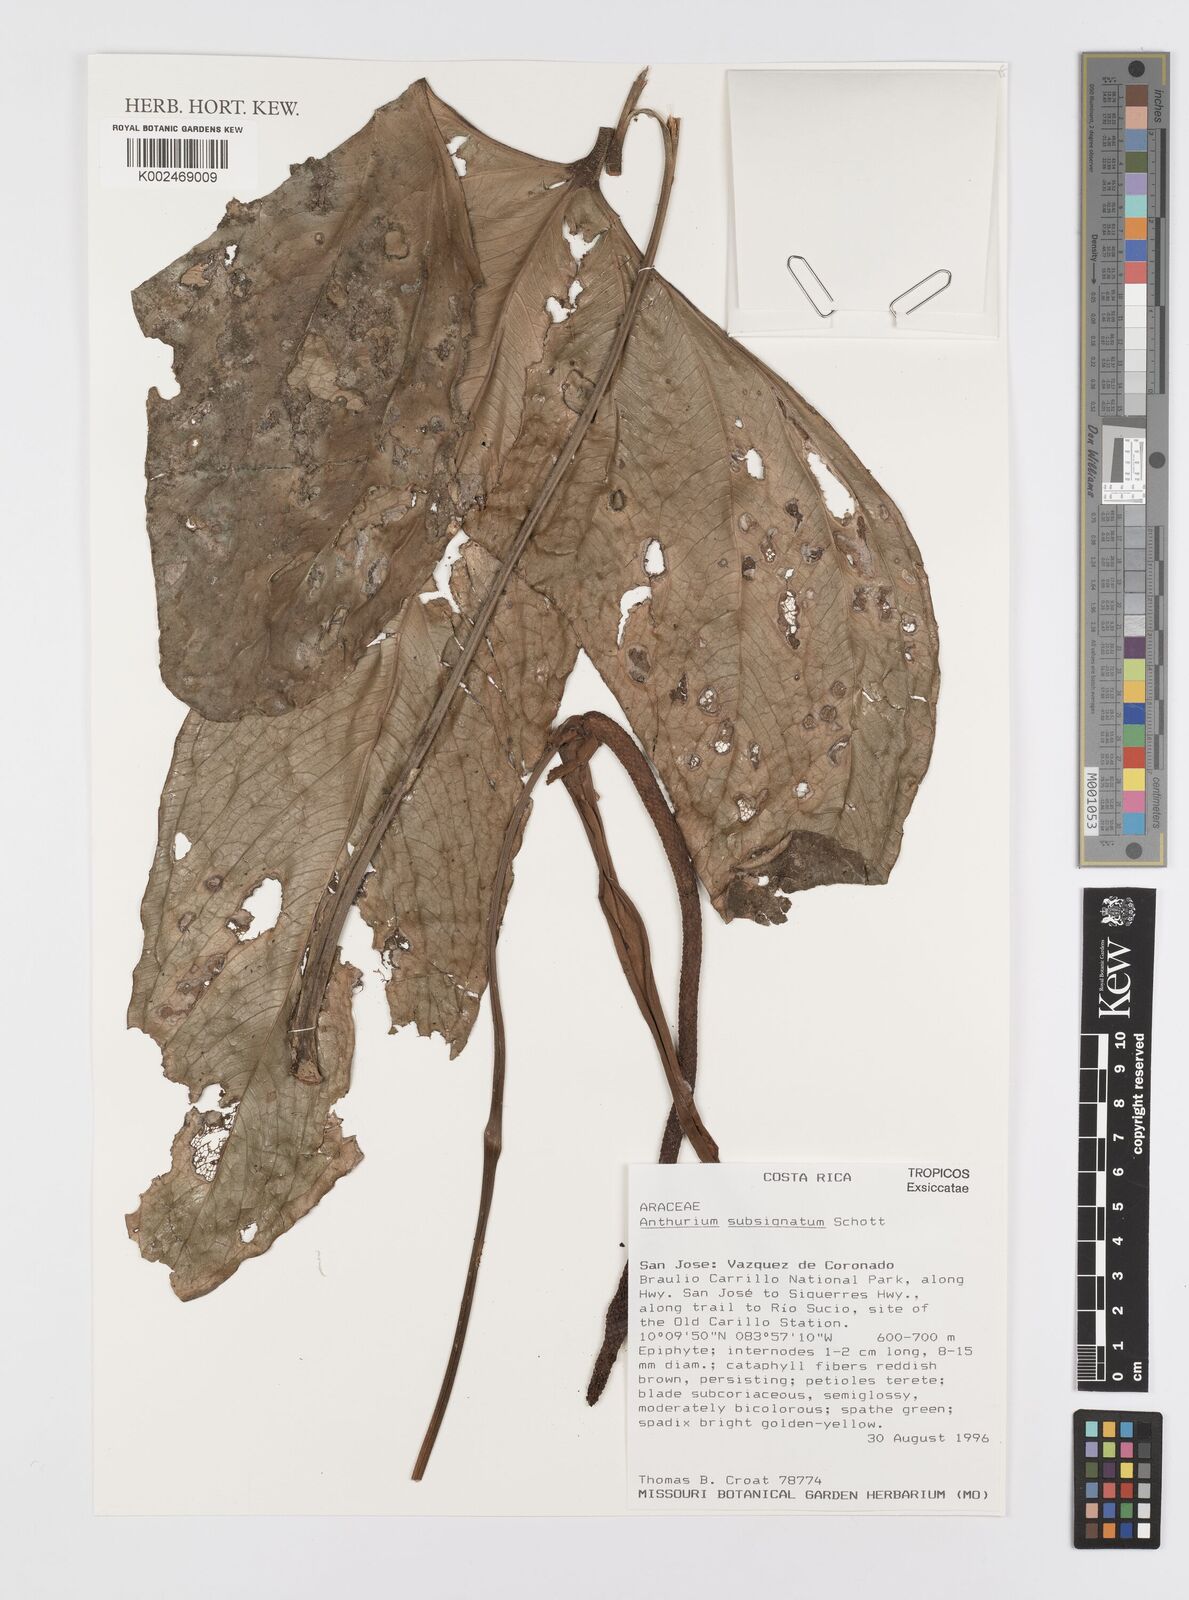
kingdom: Plantae
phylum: Tracheophyta
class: Liliopsida
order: Alismatales
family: Araceae
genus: Anthurium
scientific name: Anthurium subsignatum
